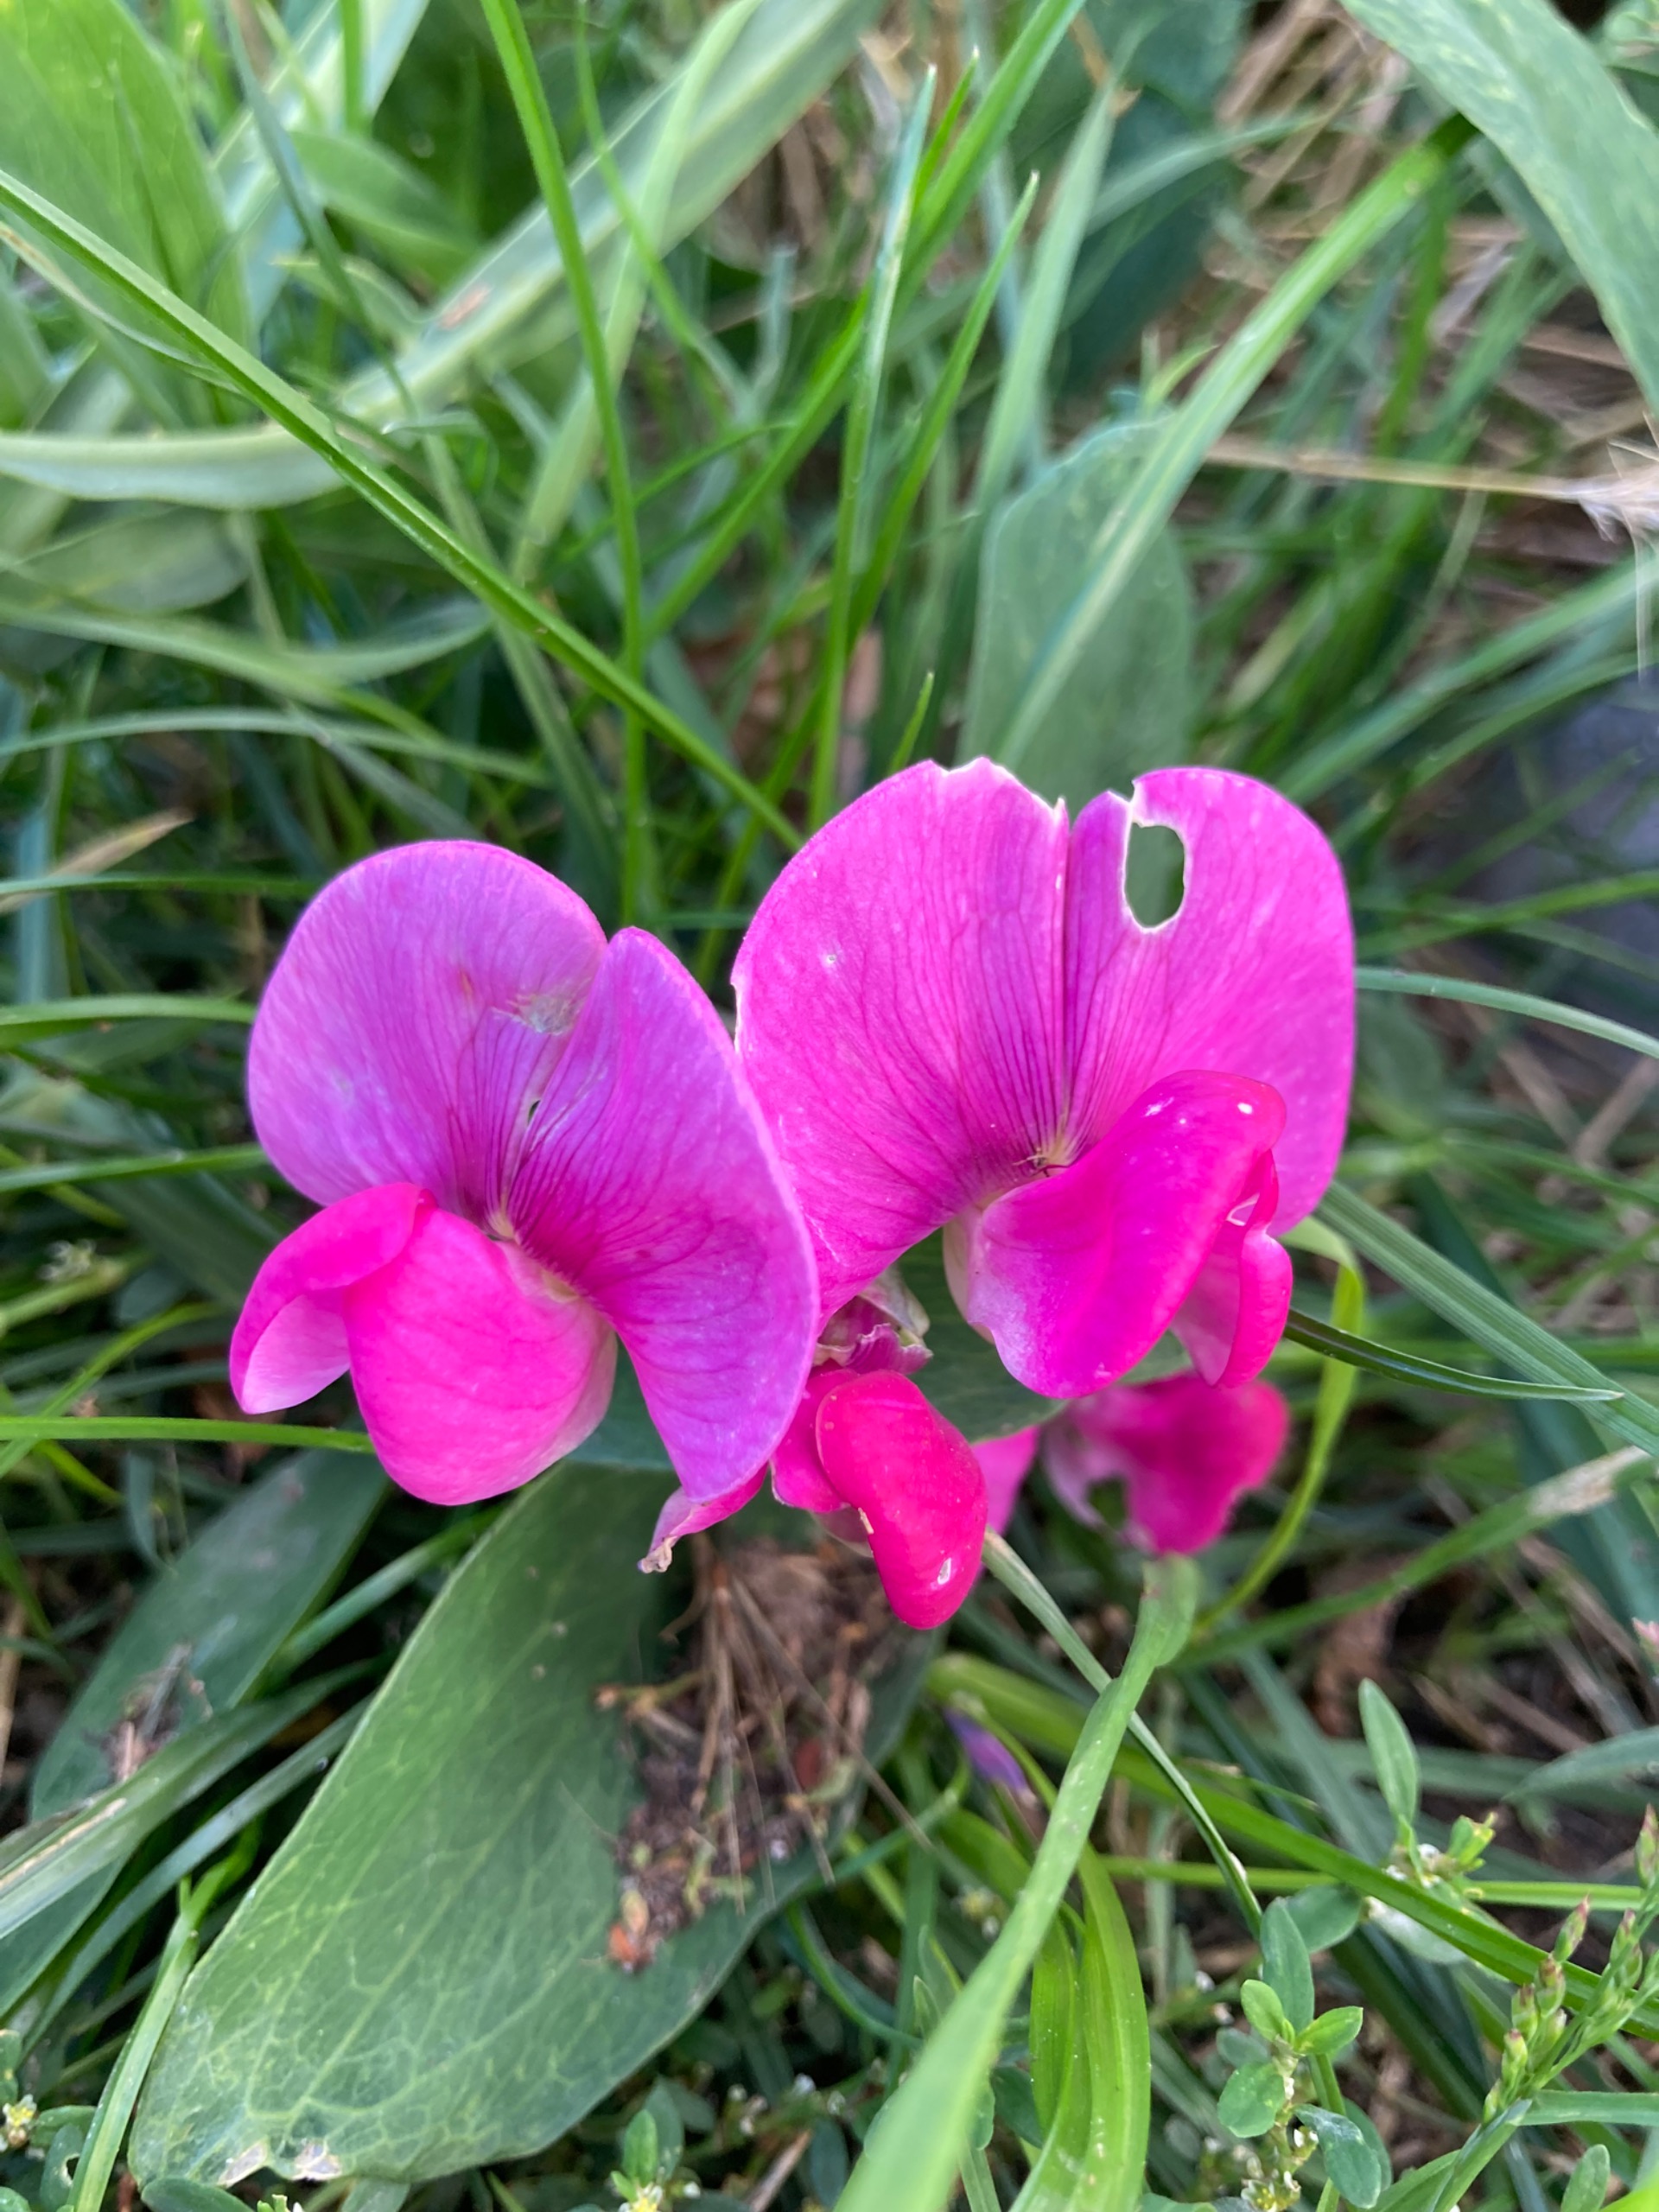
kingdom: Plantae
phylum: Tracheophyta
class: Magnoliopsida
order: Fabales
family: Fabaceae
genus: Lathyrus
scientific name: Lathyrus latifolius
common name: Flerårig ærteblomst
